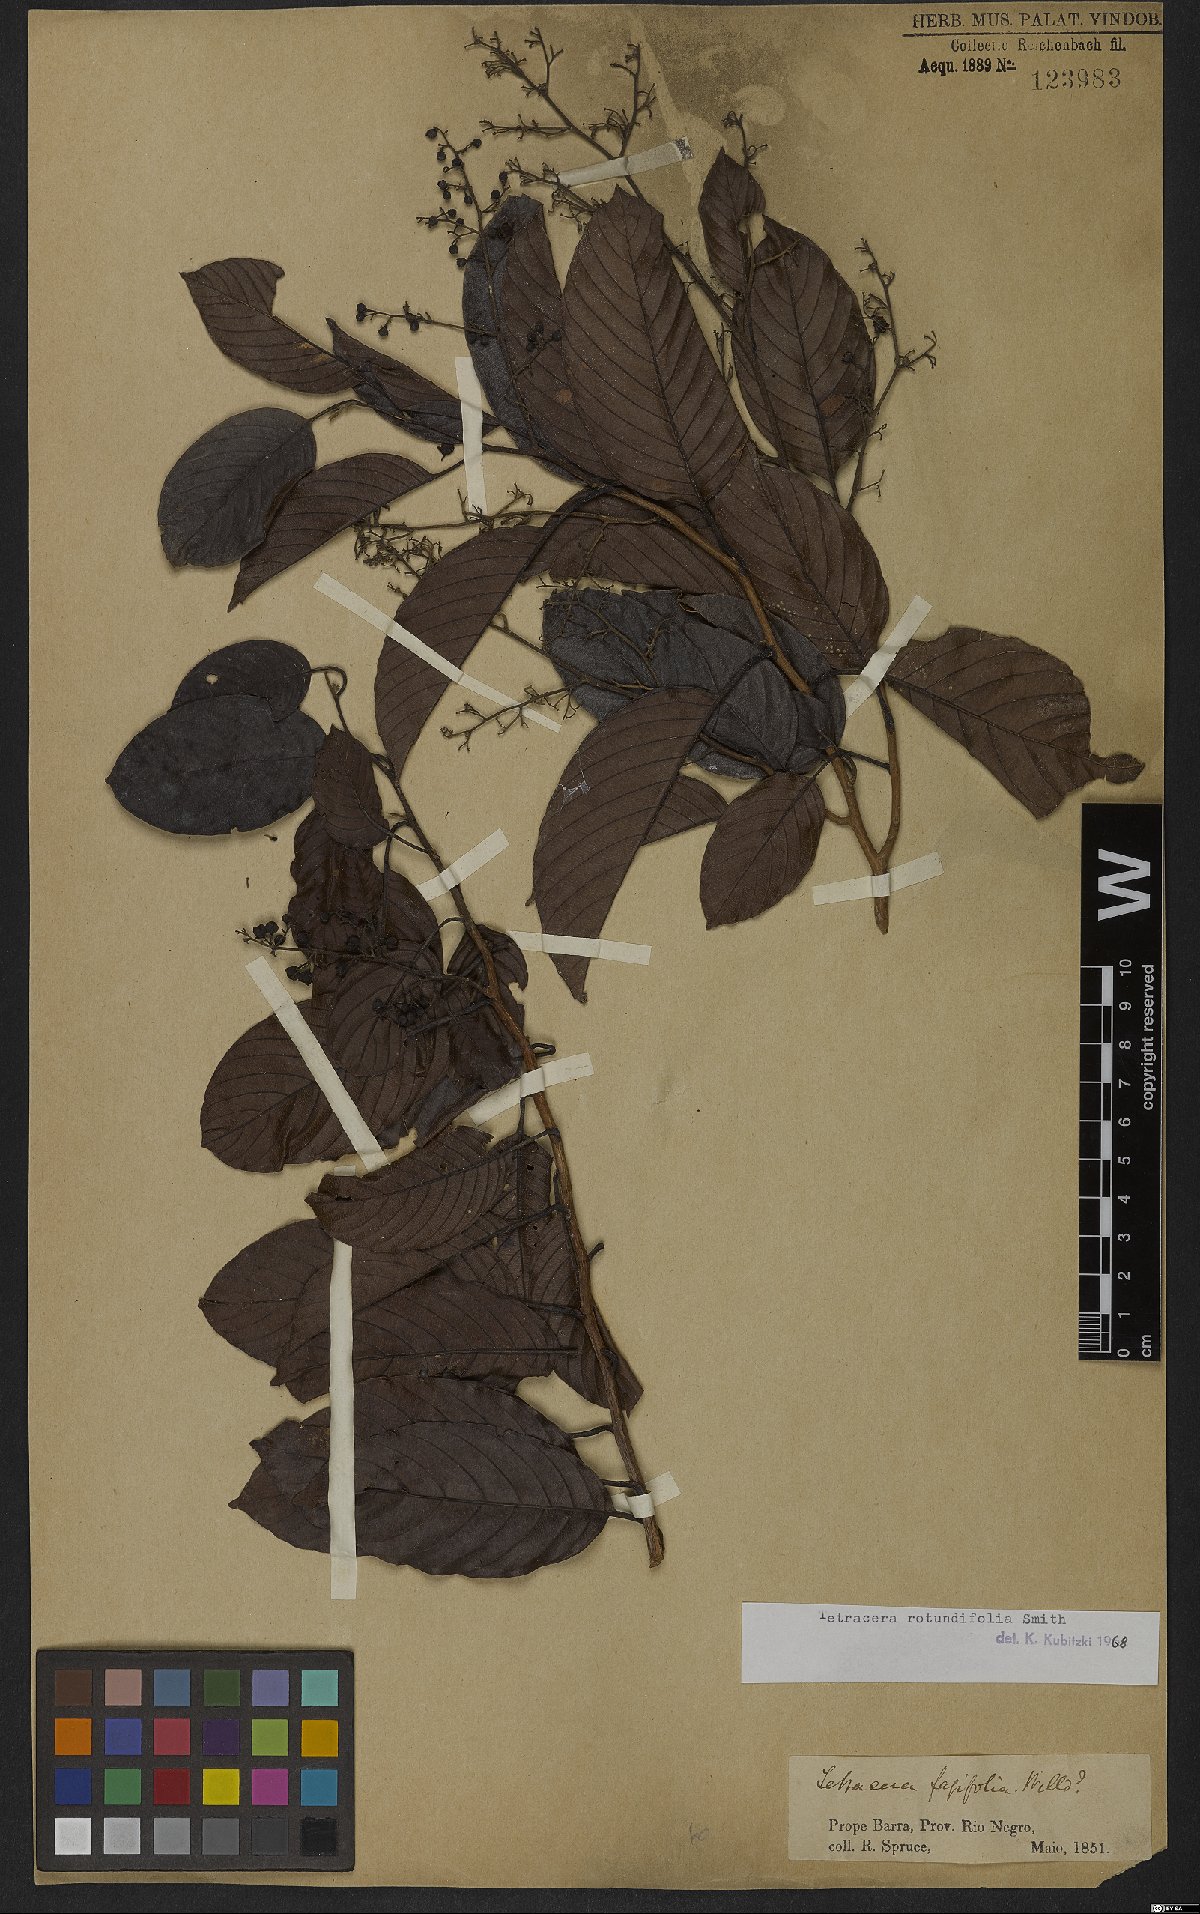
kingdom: Plantae
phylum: Tracheophyta
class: Magnoliopsida
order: Dilleniales
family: Dilleniaceae
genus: Tetracera
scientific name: Tetracera rotundifolia
